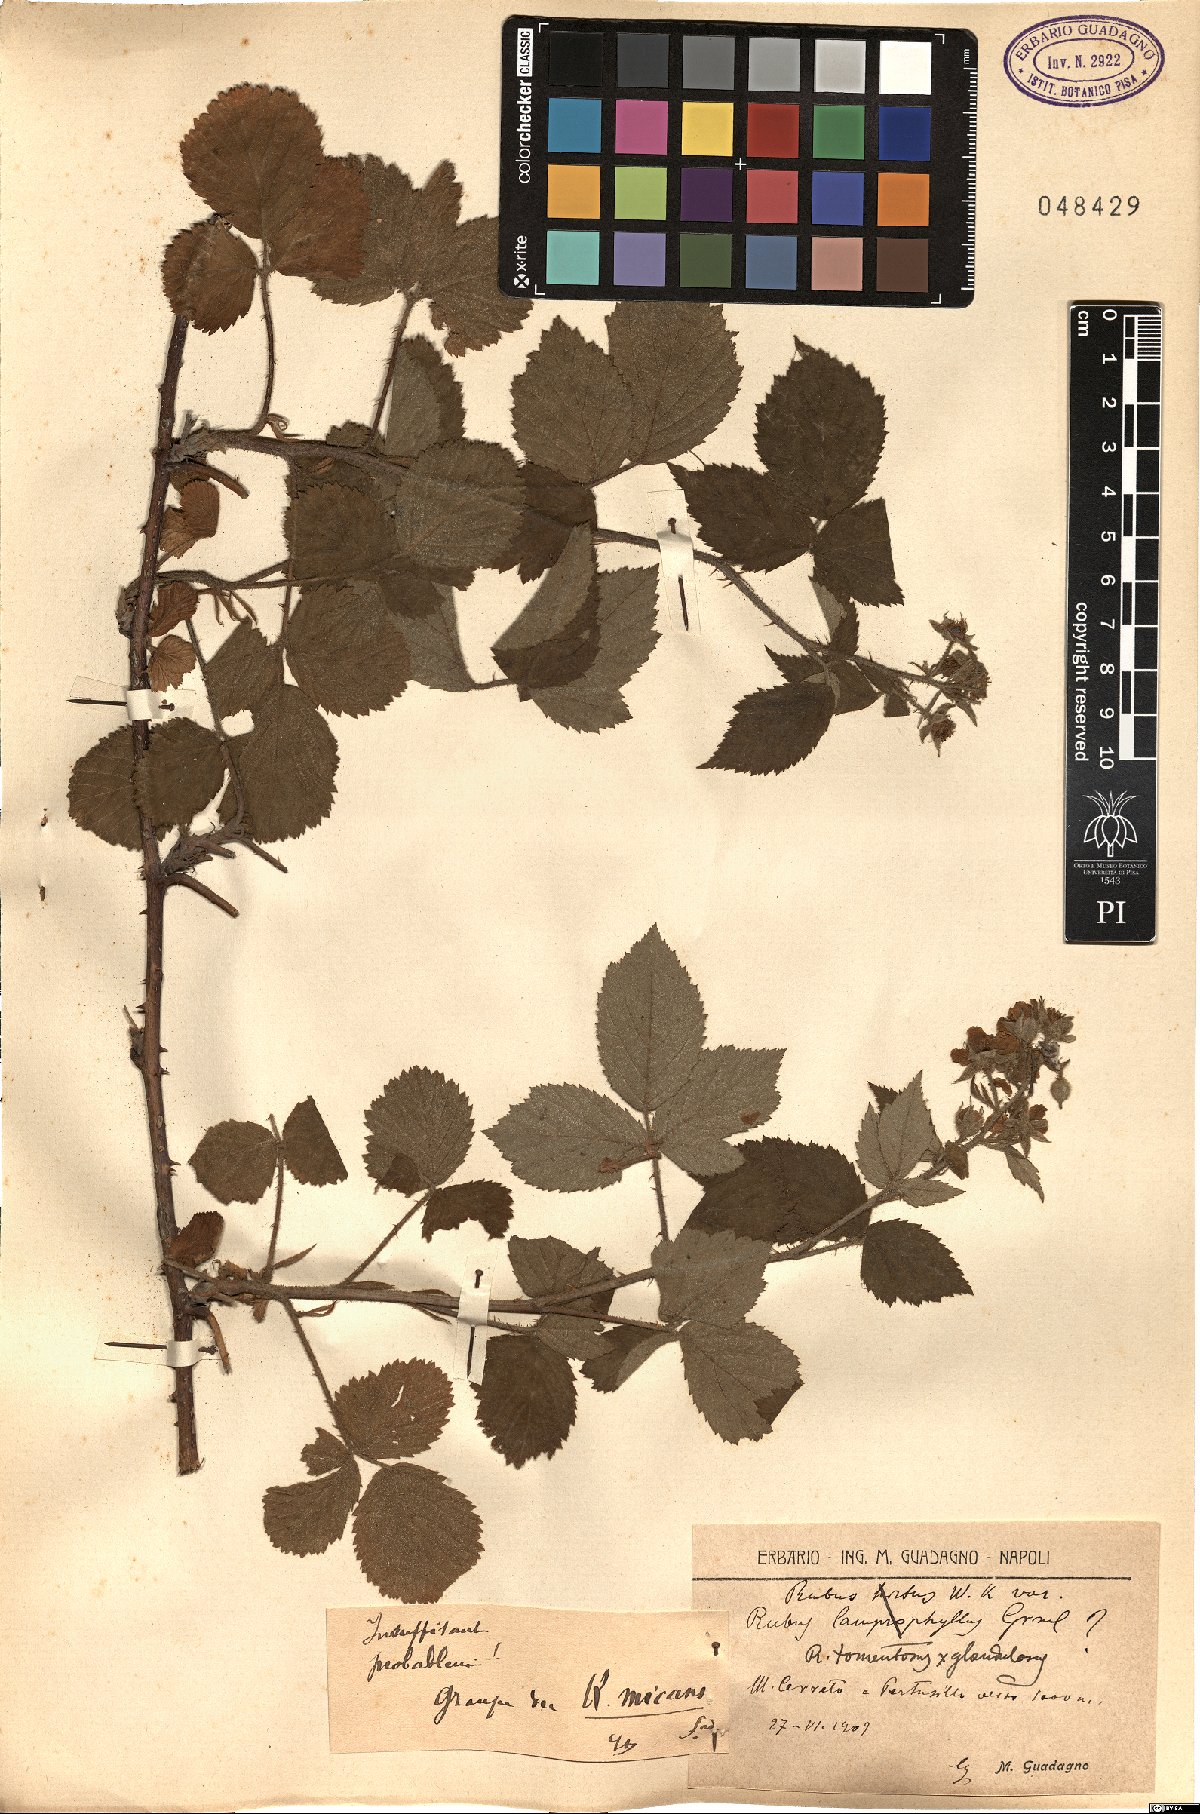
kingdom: Plantae
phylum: Tracheophyta
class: Magnoliopsida
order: Rosales
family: Rosaceae
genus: Rubus
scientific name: Rubus micans
